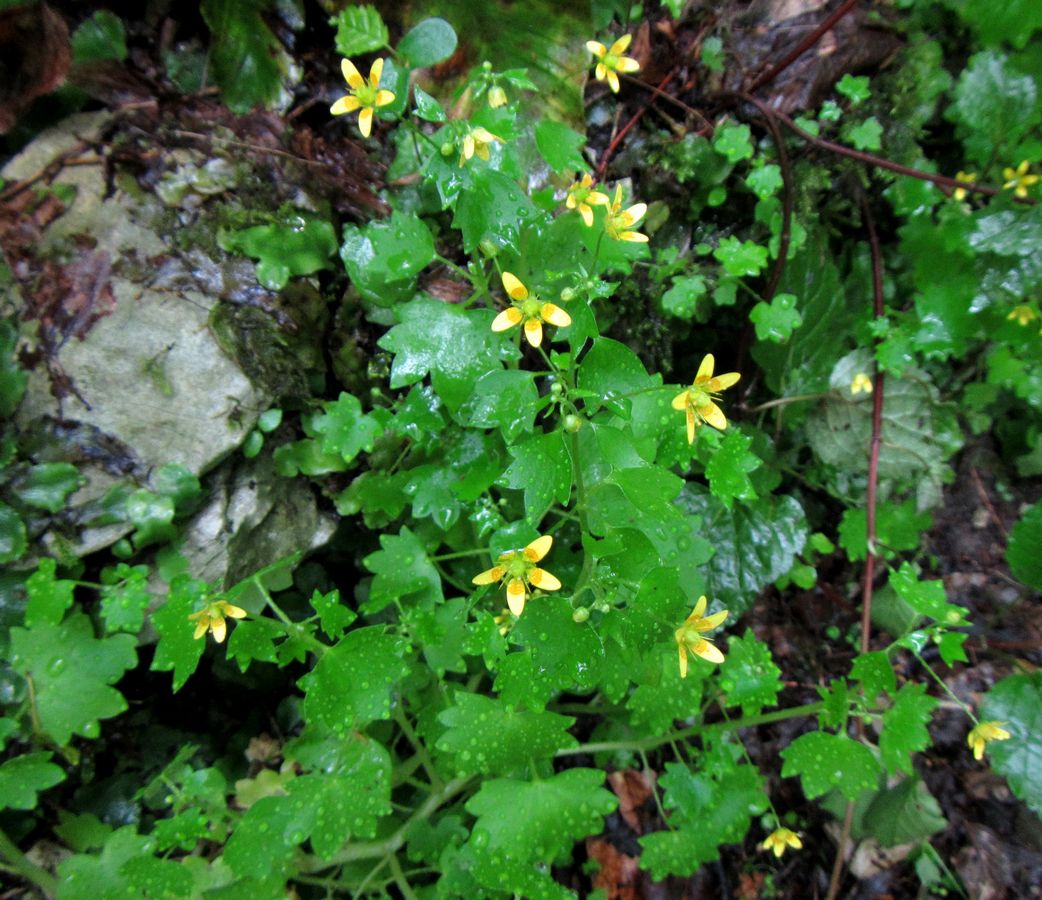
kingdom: Plantae
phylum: Tracheophyta
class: Magnoliopsida
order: Saxifragales
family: Saxifragaceae
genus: Saxifraga
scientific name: Saxifraga cymbalaria
